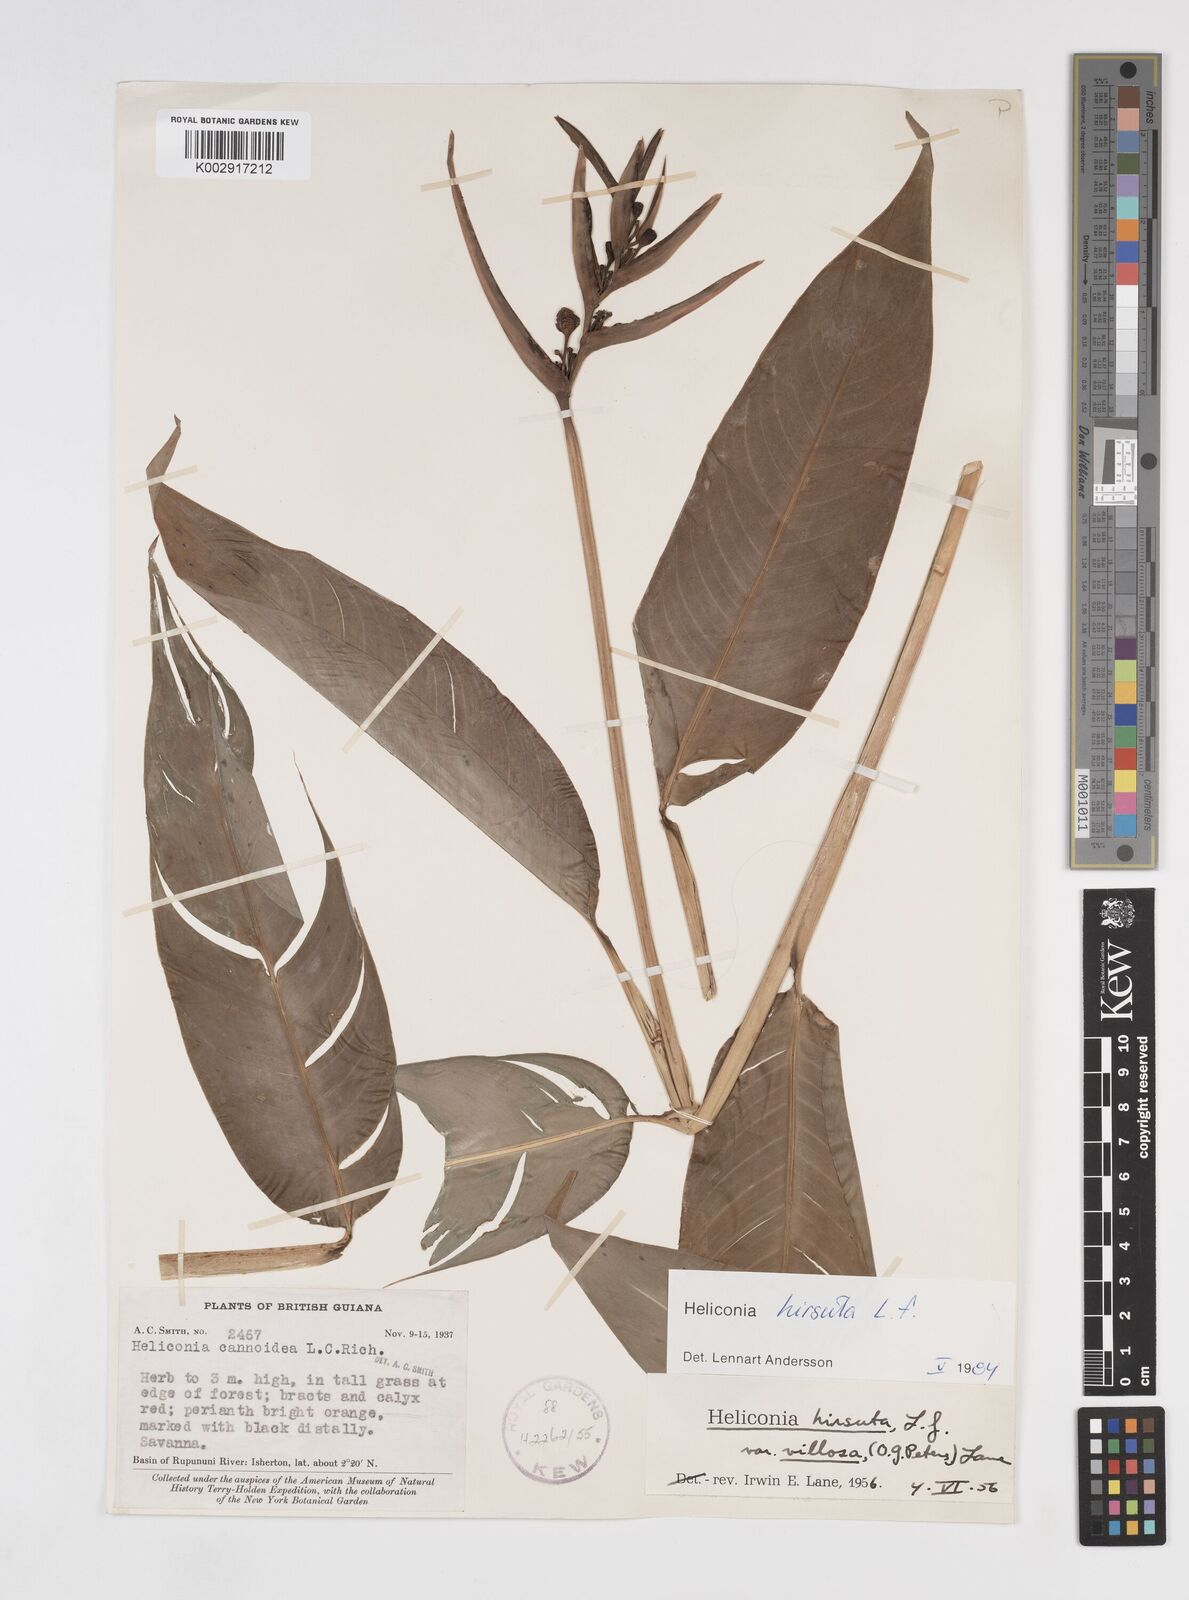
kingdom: Plantae
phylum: Tracheophyta
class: Liliopsida
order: Zingiberales
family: Heliconiaceae
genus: Heliconia
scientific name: Heliconia hirsuta
